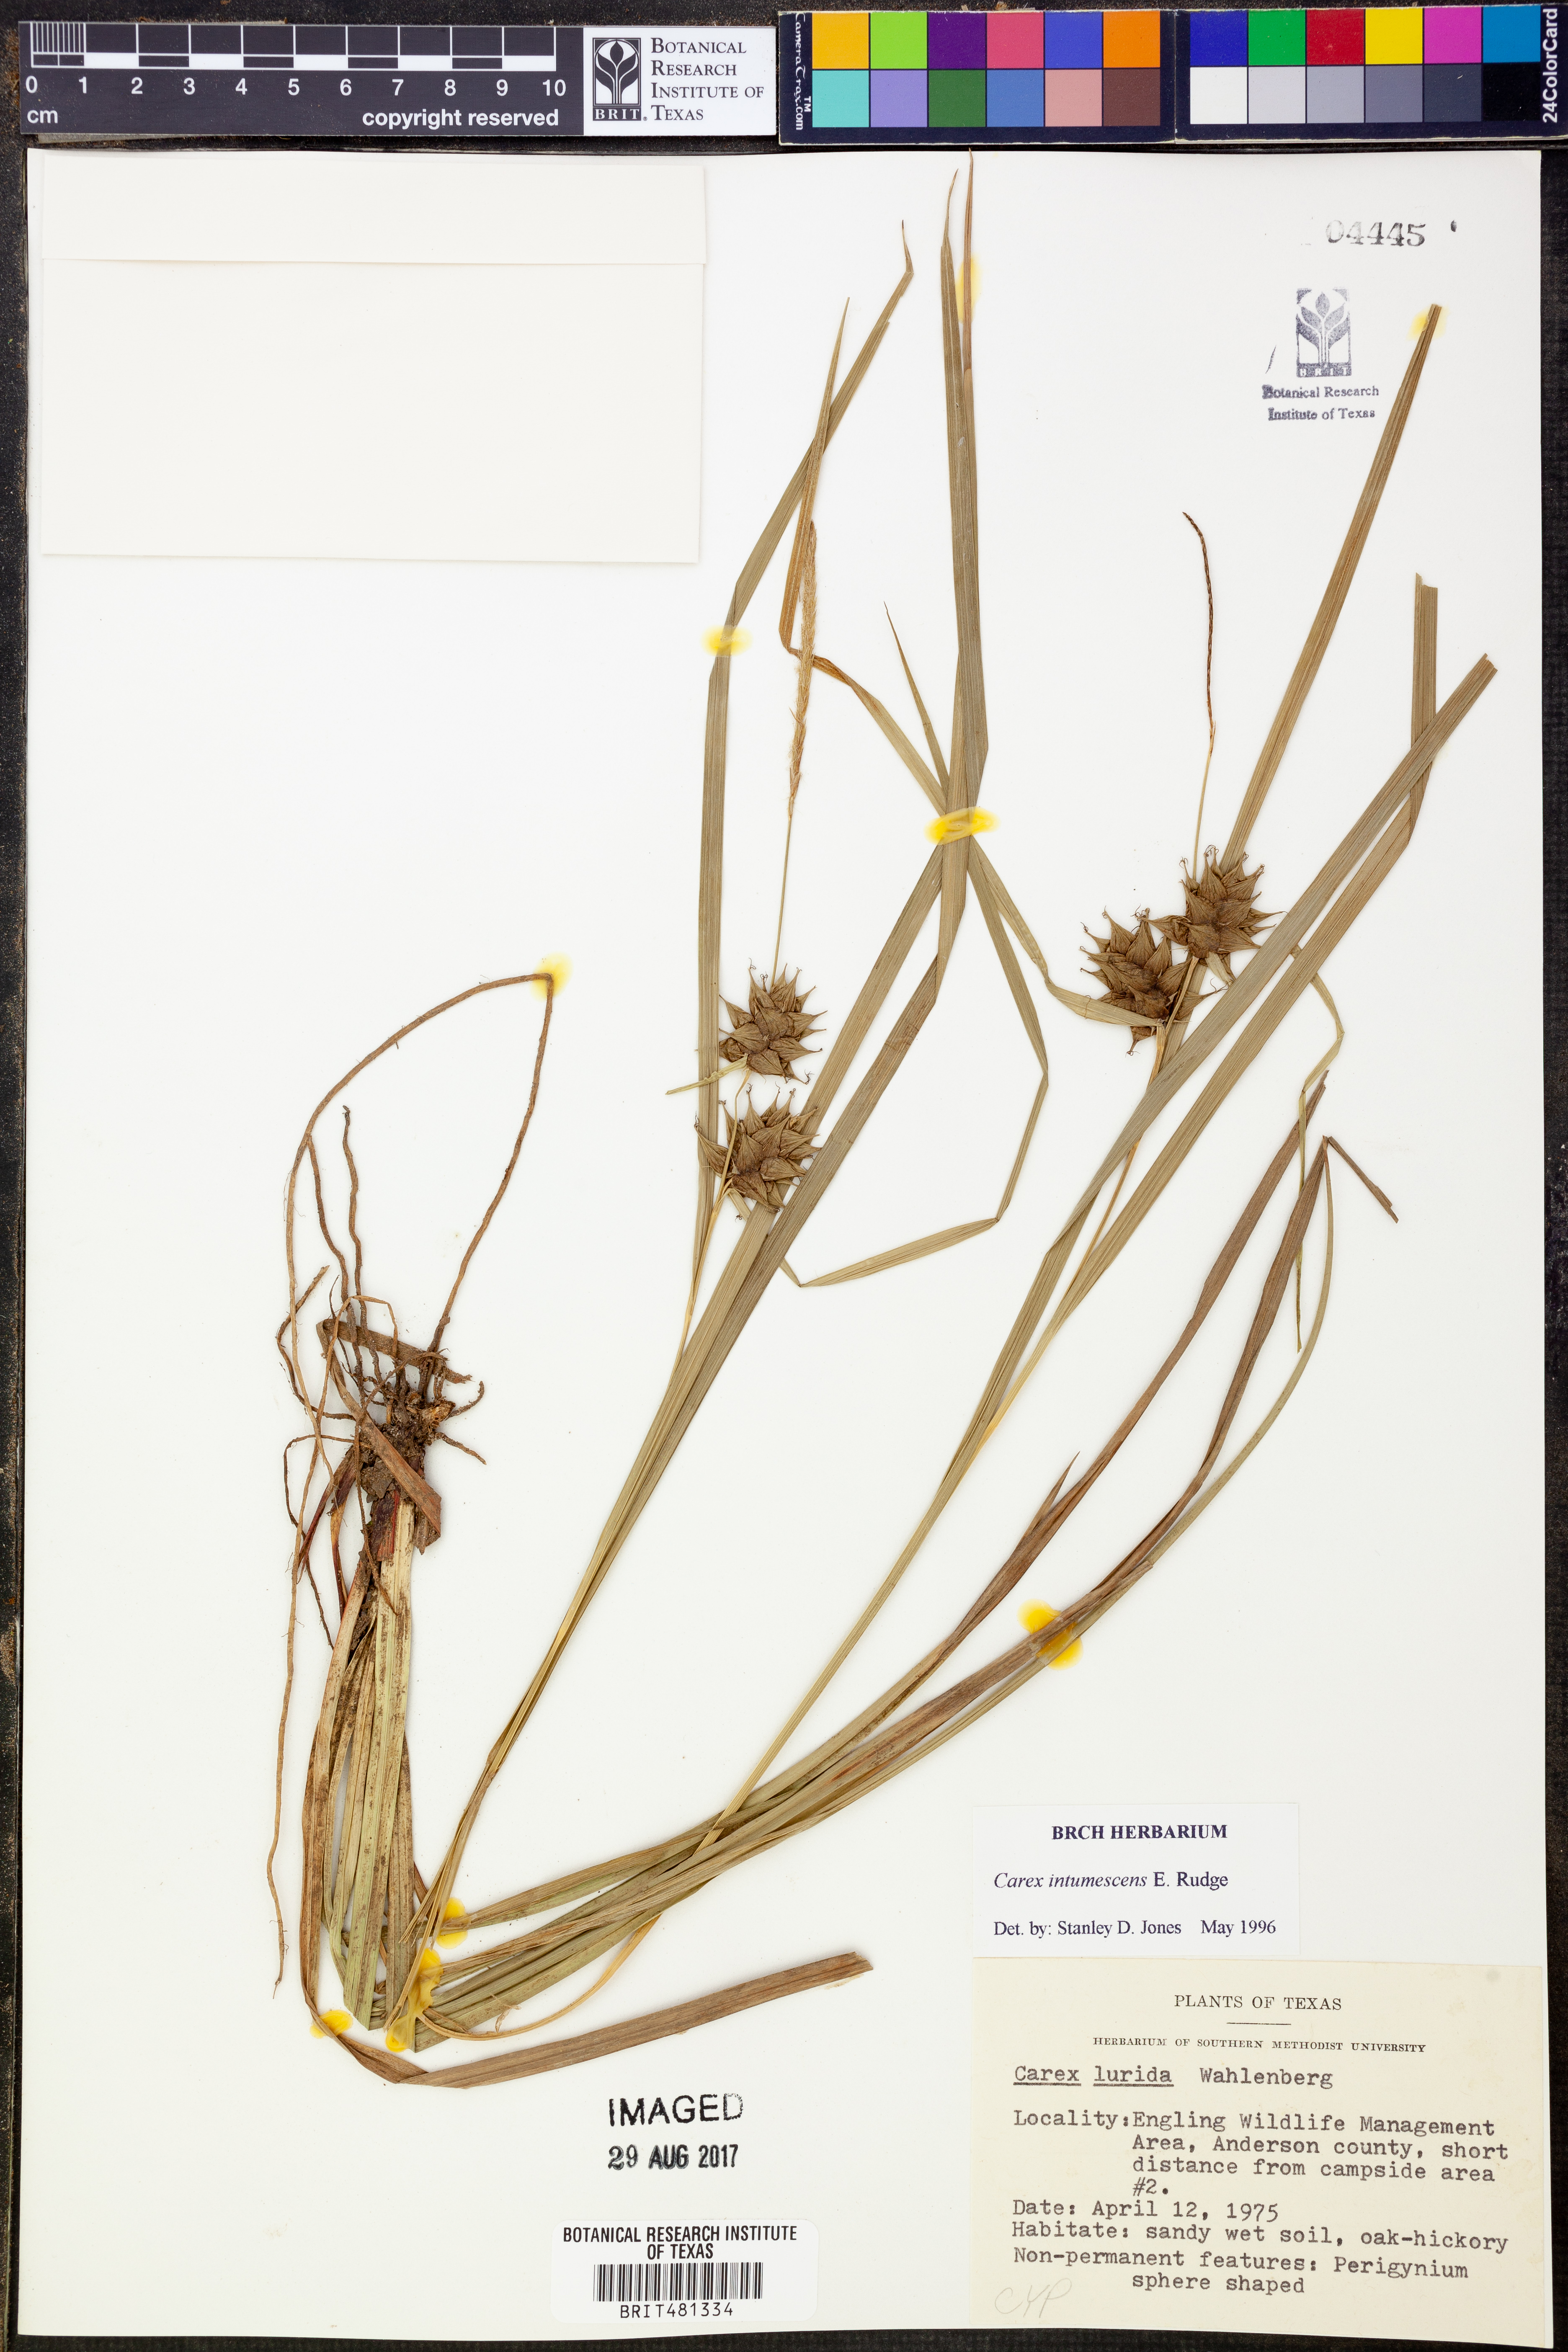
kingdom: Plantae
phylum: Tracheophyta
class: Liliopsida
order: Poales
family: Cyperaceae
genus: Carex
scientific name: Carex intumescens
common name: Greater bladder sedge
